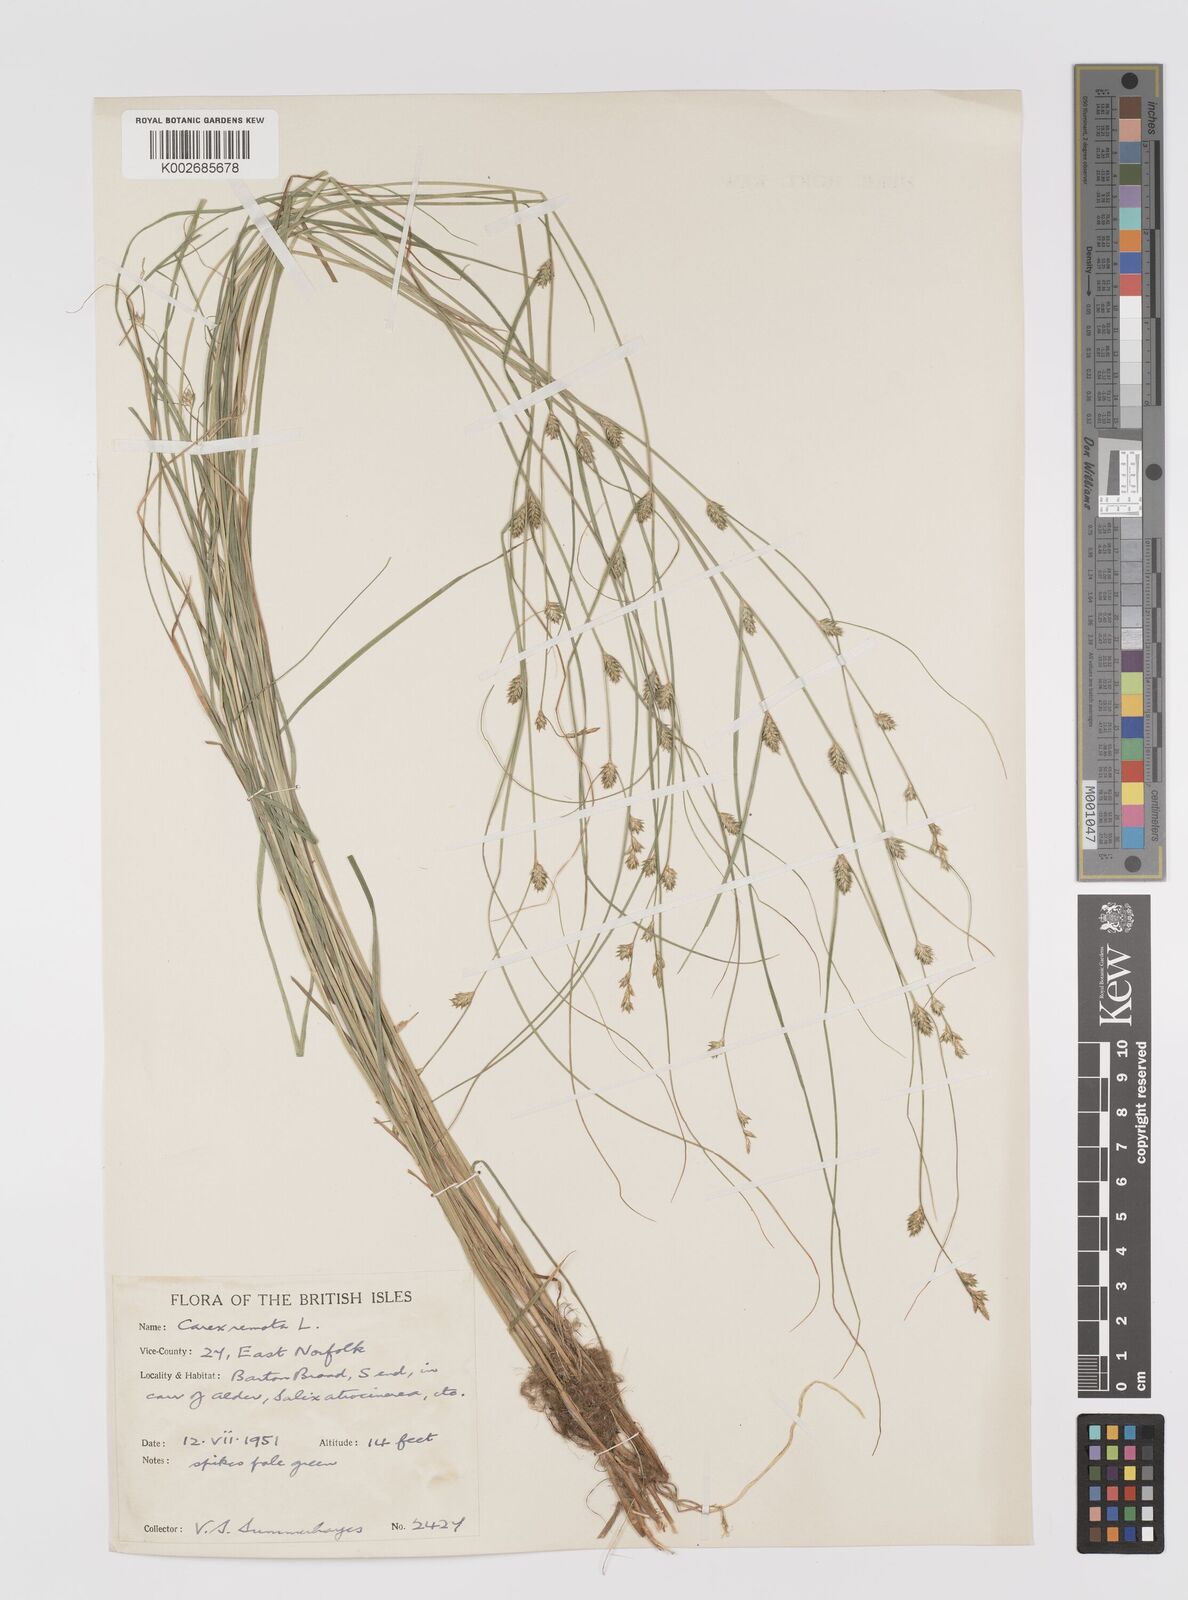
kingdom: Plantae
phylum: Tracheophyta
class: Liliopsida
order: Poales
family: Cyperaceae
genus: Carex
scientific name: Carex remota
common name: Remote sedge
